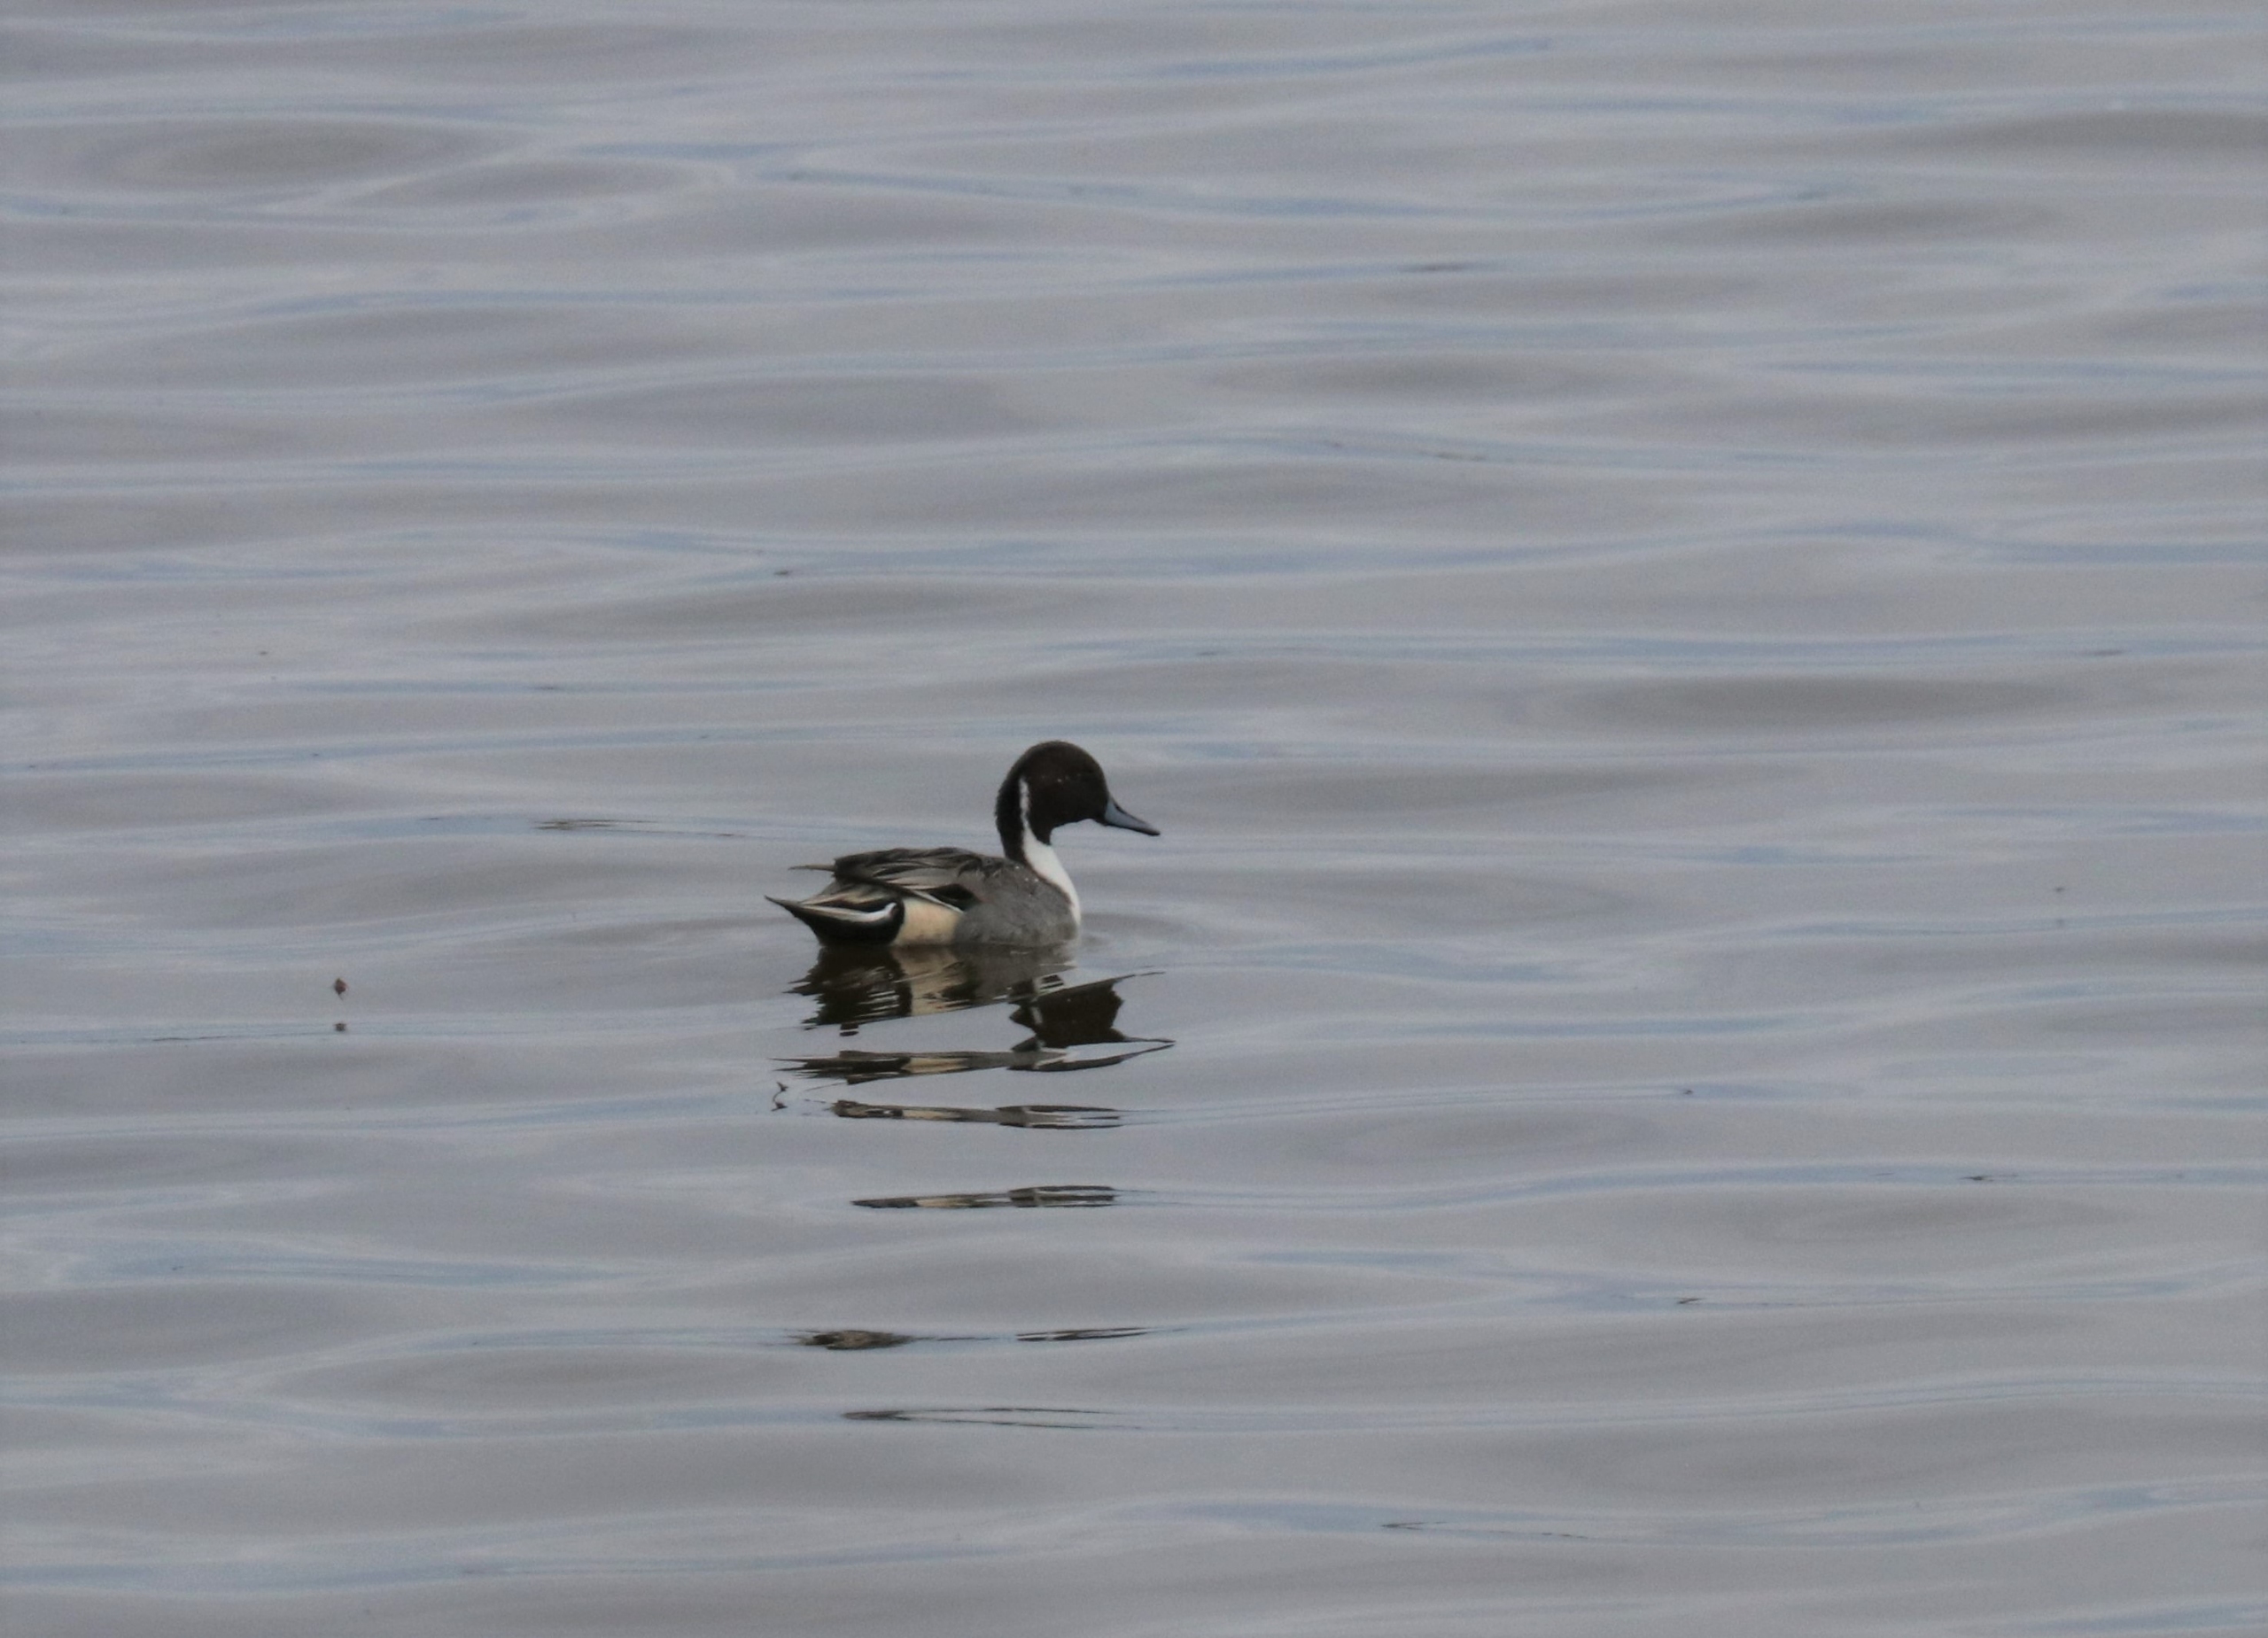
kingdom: Animalia
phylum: Chordata
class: Aves
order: Anseriformes
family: Anatidae
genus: Anas
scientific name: Anas acuta
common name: Spidsand
